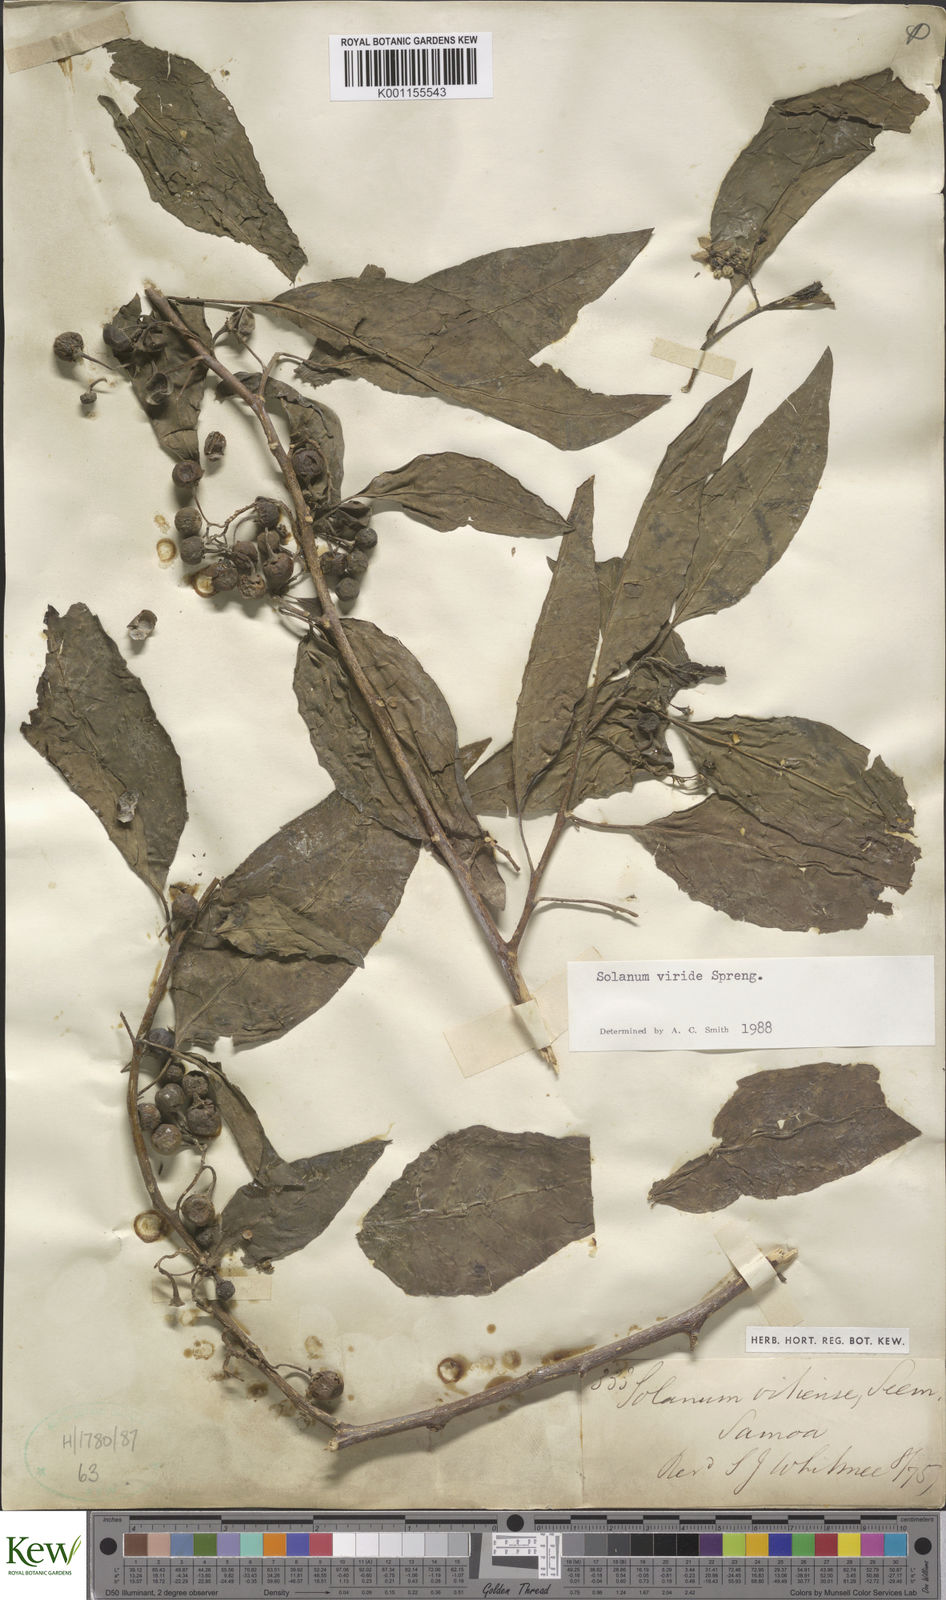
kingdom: Plantae
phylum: Tracheophyta
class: Magnoliopsida
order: Solanales
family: Solanaceae
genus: Solanum
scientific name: Solanum
